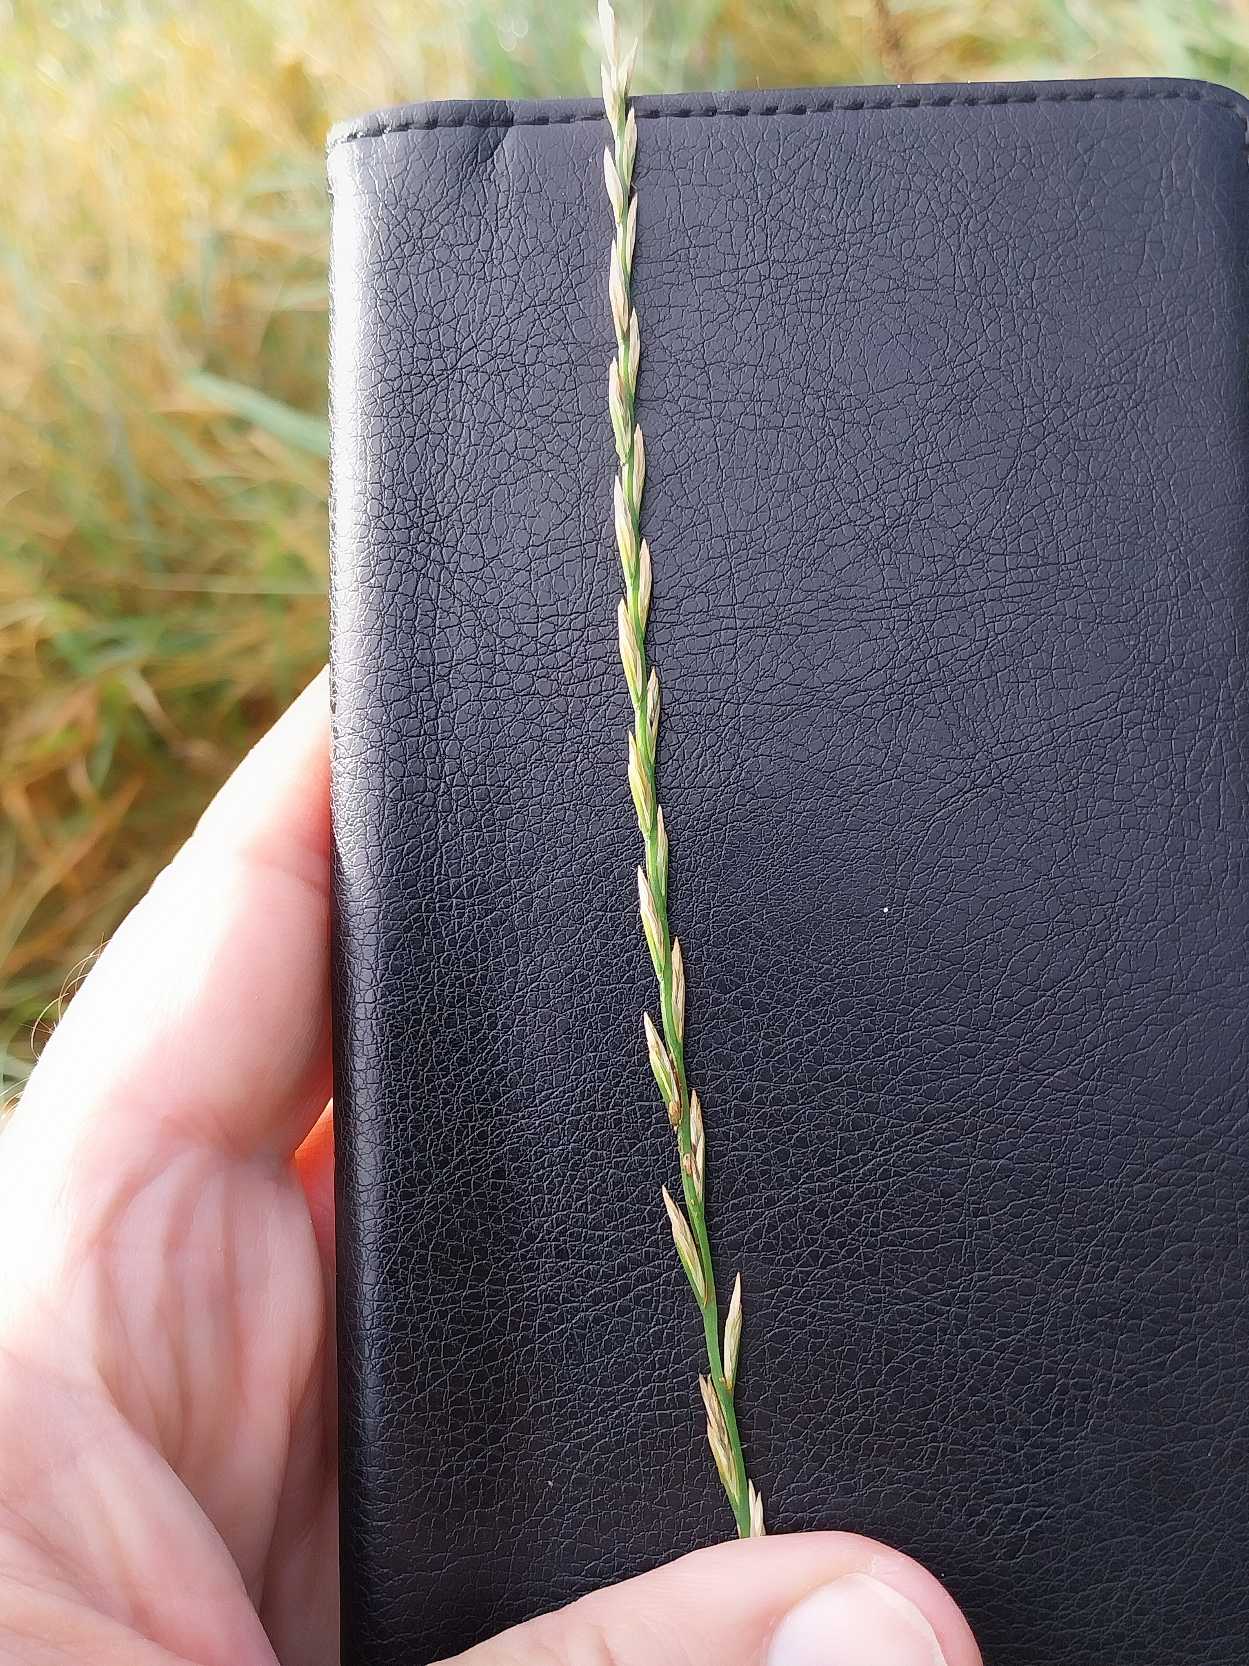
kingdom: Plantae
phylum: Tracheophyta
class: Liliopsida
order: Poales
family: Poaceae
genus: Lolium
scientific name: Lolium perenne
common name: Almindelig rajgræs
